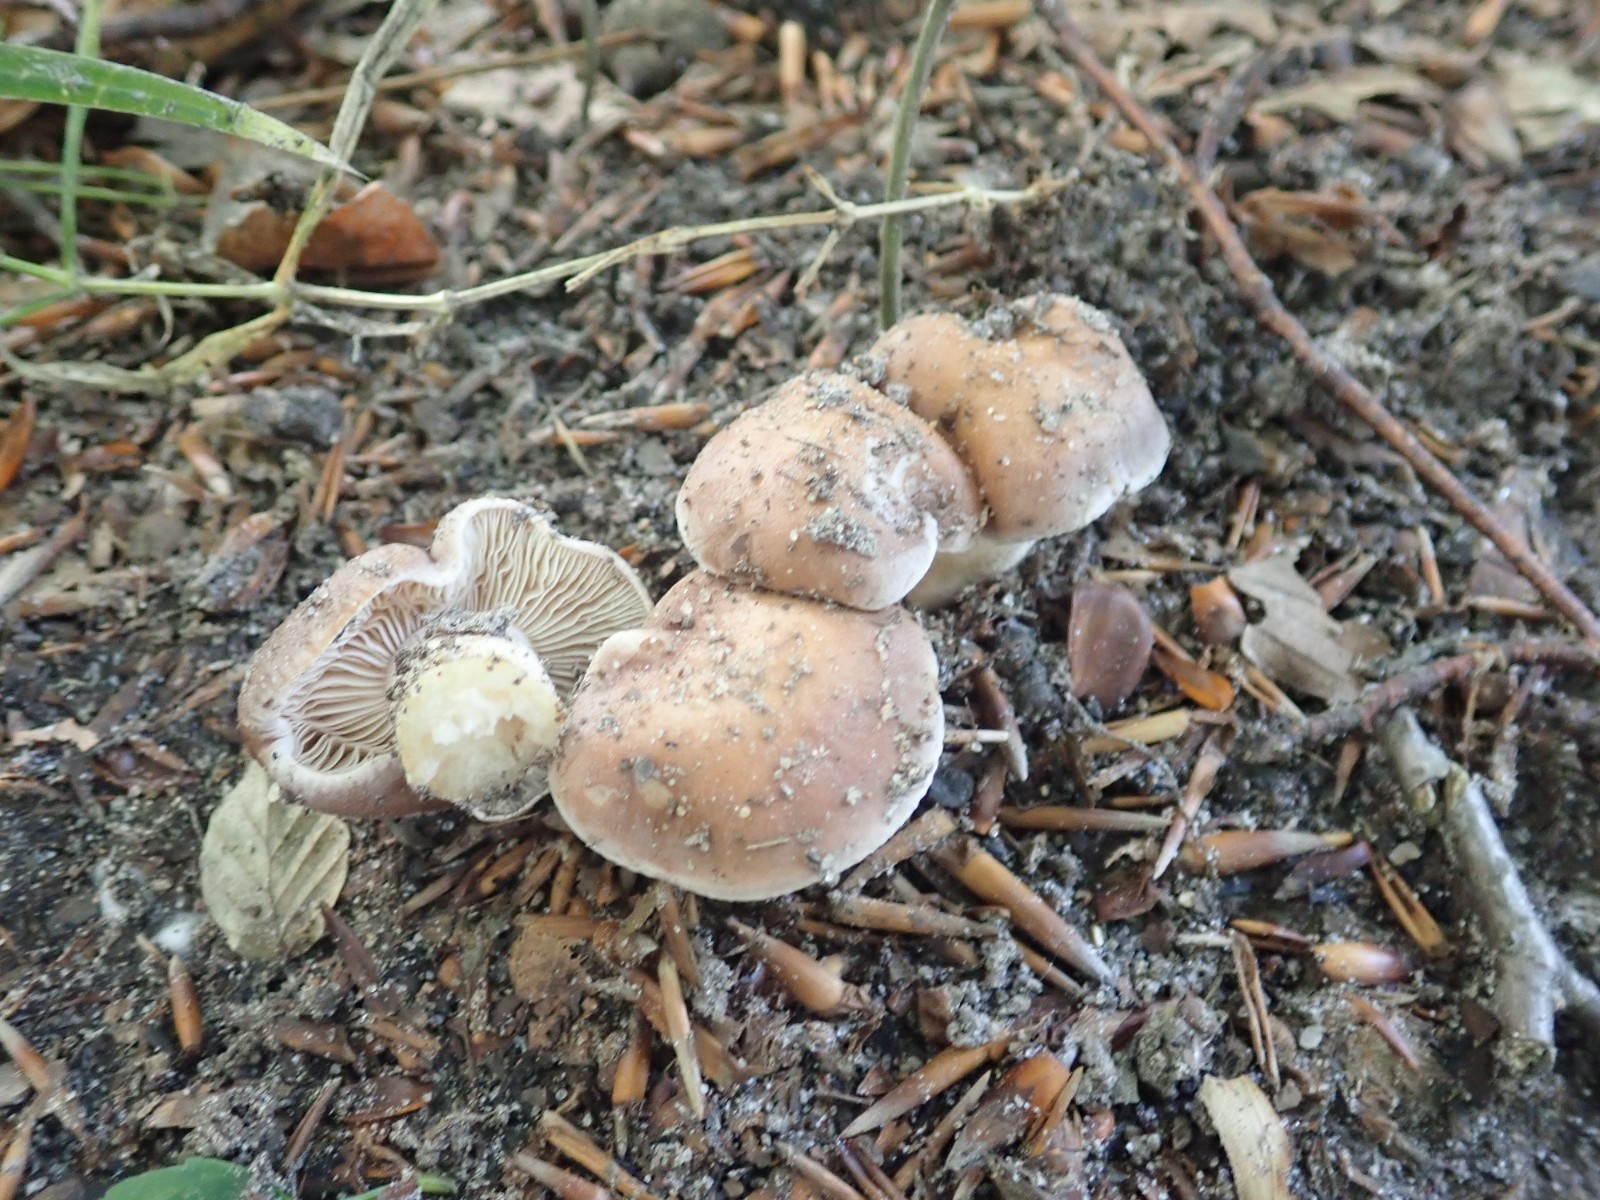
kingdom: Fungi
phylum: Basidiomycota
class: Agaricomycetes
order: Agaricales
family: Hymenogastraceae
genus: Hebeloma
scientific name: Hebeloma theobrominum
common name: rødbrun tåreblad
